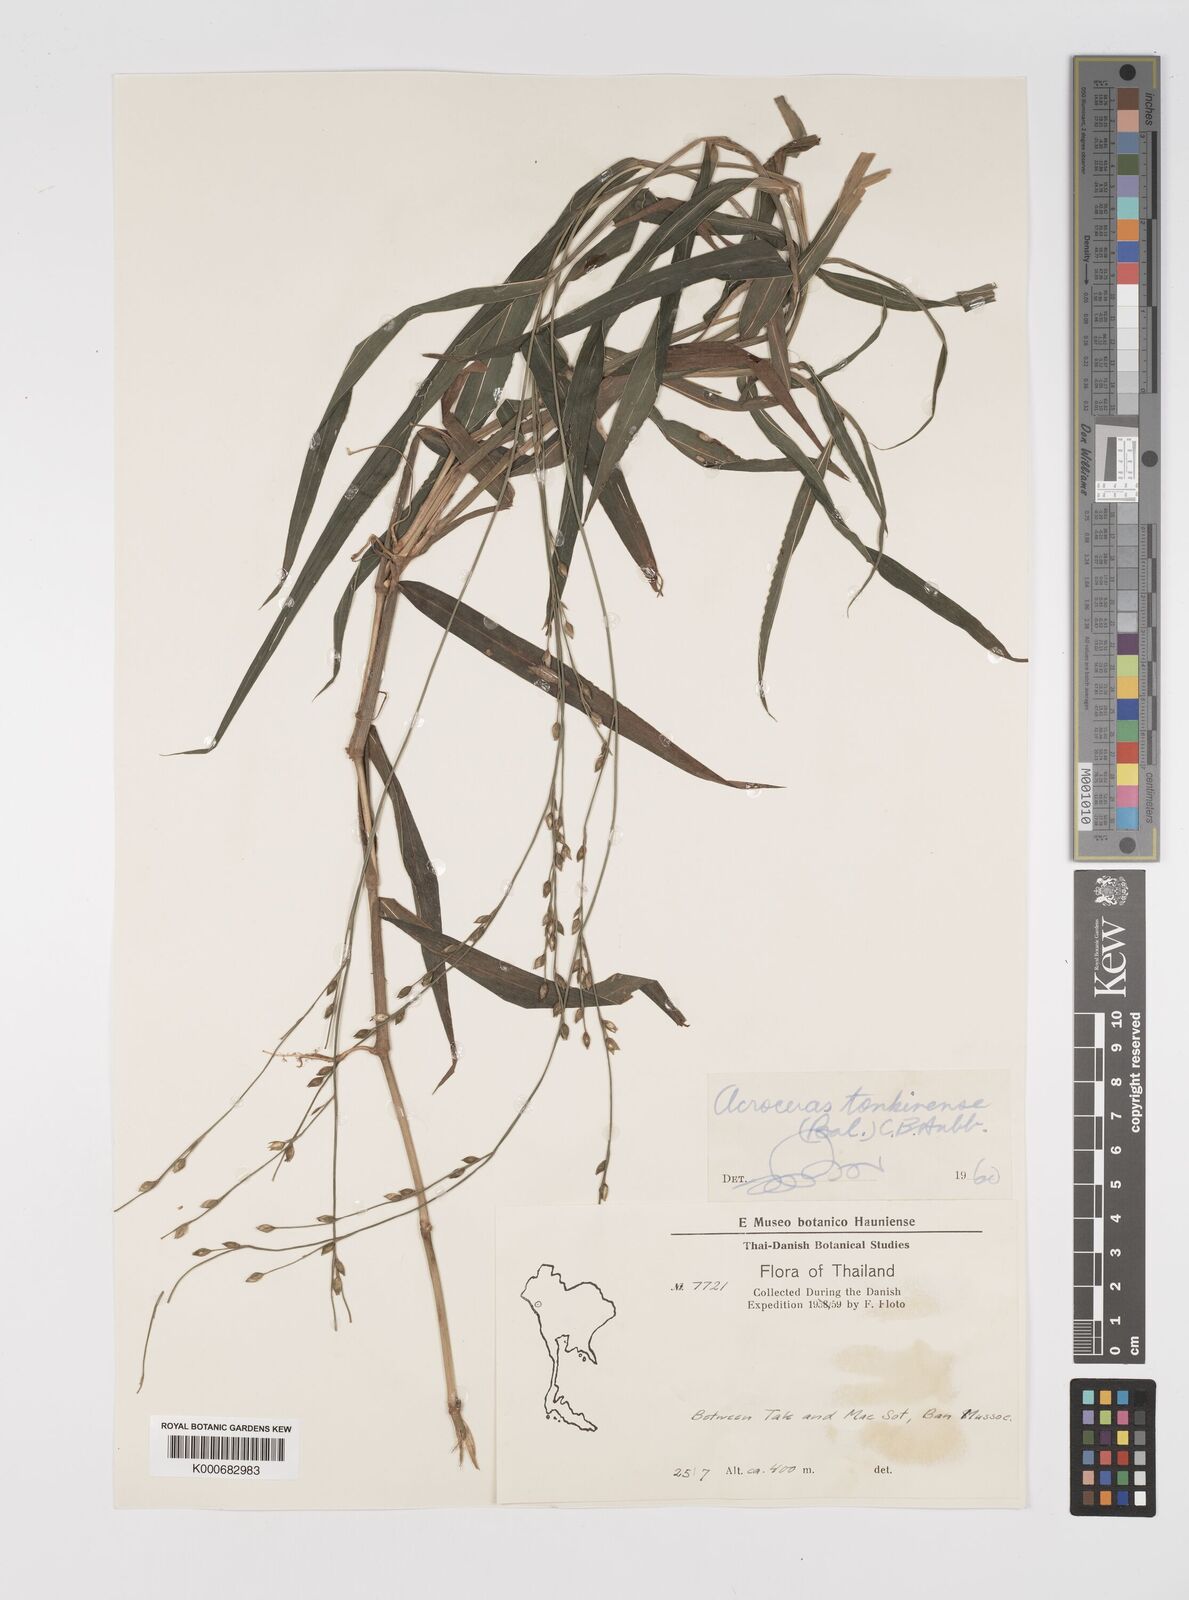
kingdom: Plantae
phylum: Tracheophyta
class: Liliopsida
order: Poales
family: Poaceae
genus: Acroceras
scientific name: Acroceras
